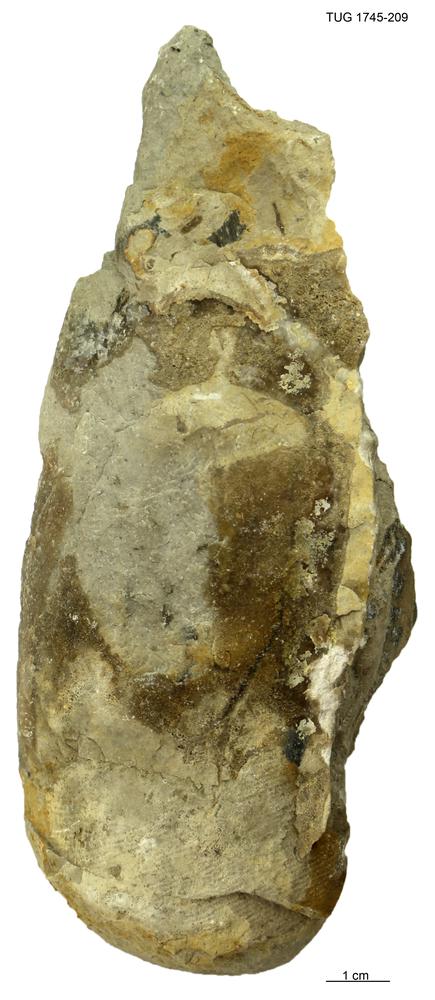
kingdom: Animalia
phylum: Mollusca
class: Cephalopoda
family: Protophragmoceratidae
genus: Protophragmoceras
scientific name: Protophragmoceras
